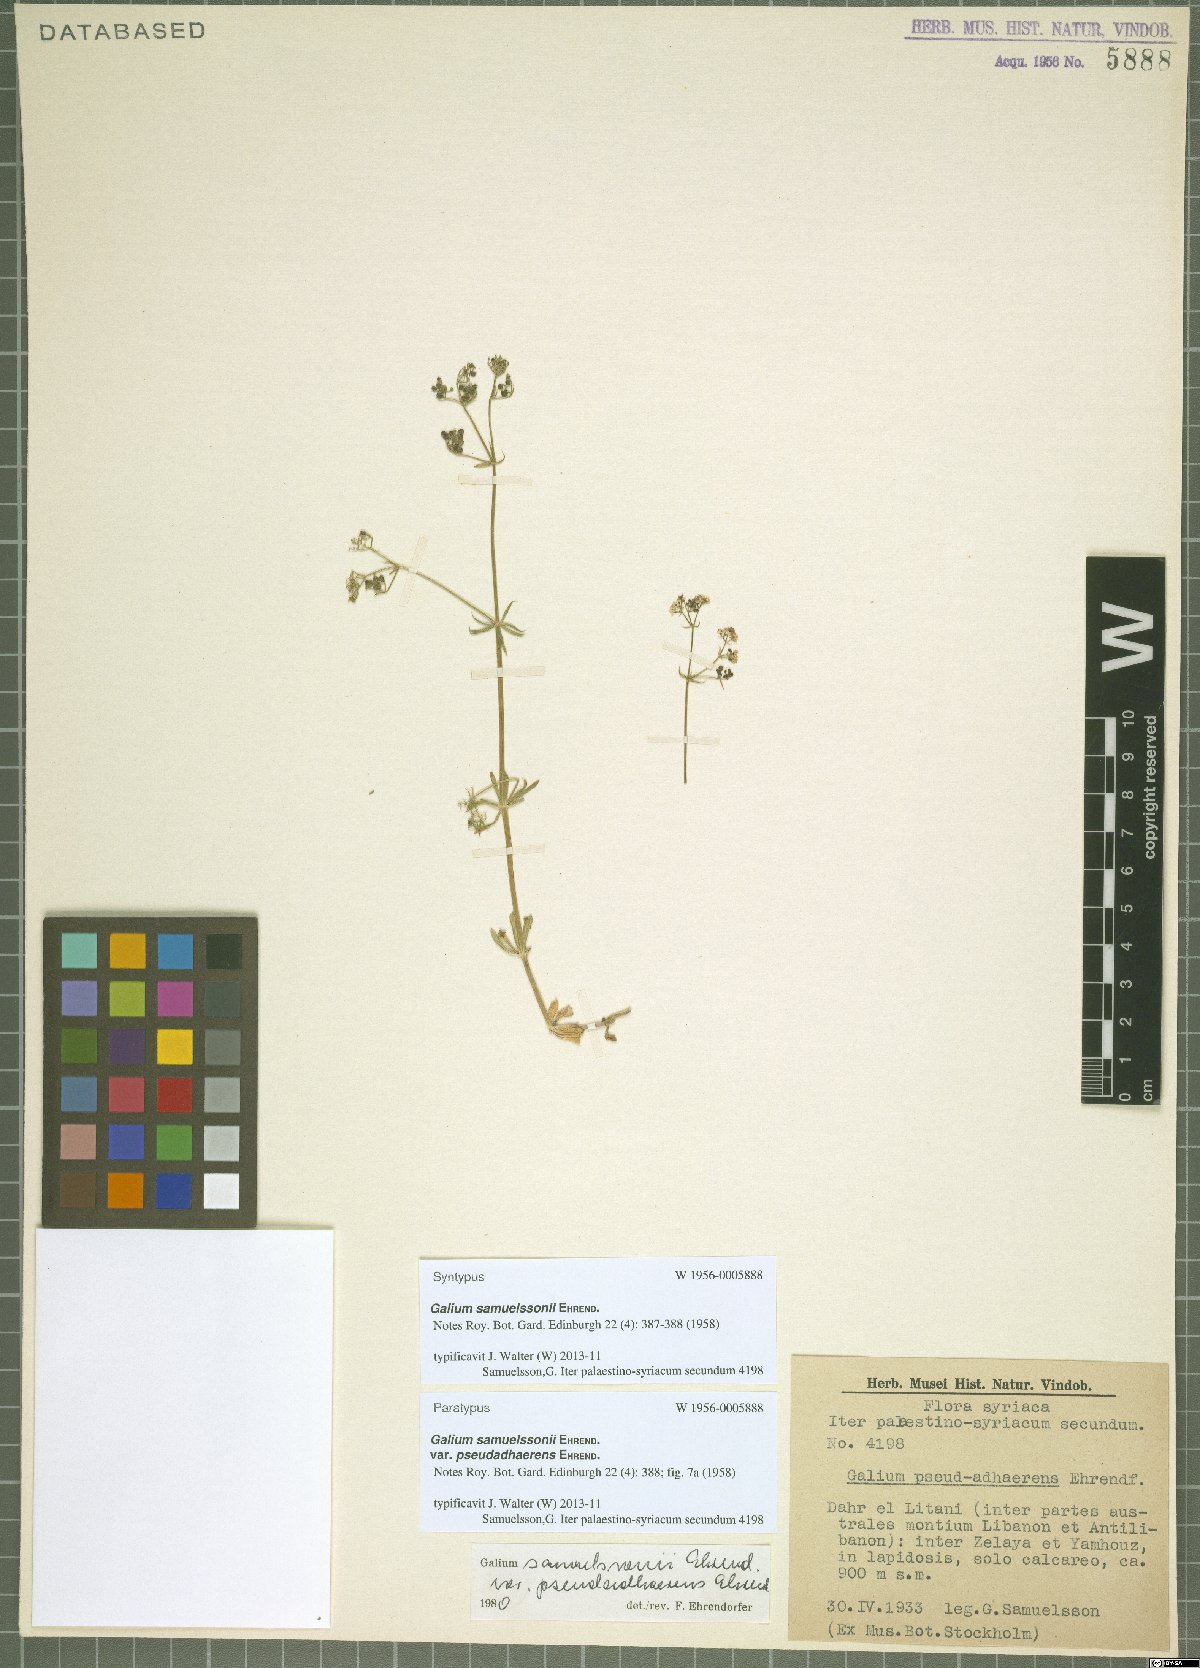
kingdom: Plantae
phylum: Tracheophyta
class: Magnoliopsida
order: Gentianales
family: Rubiaceae
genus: Galium
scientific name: Galium samuelssonii
